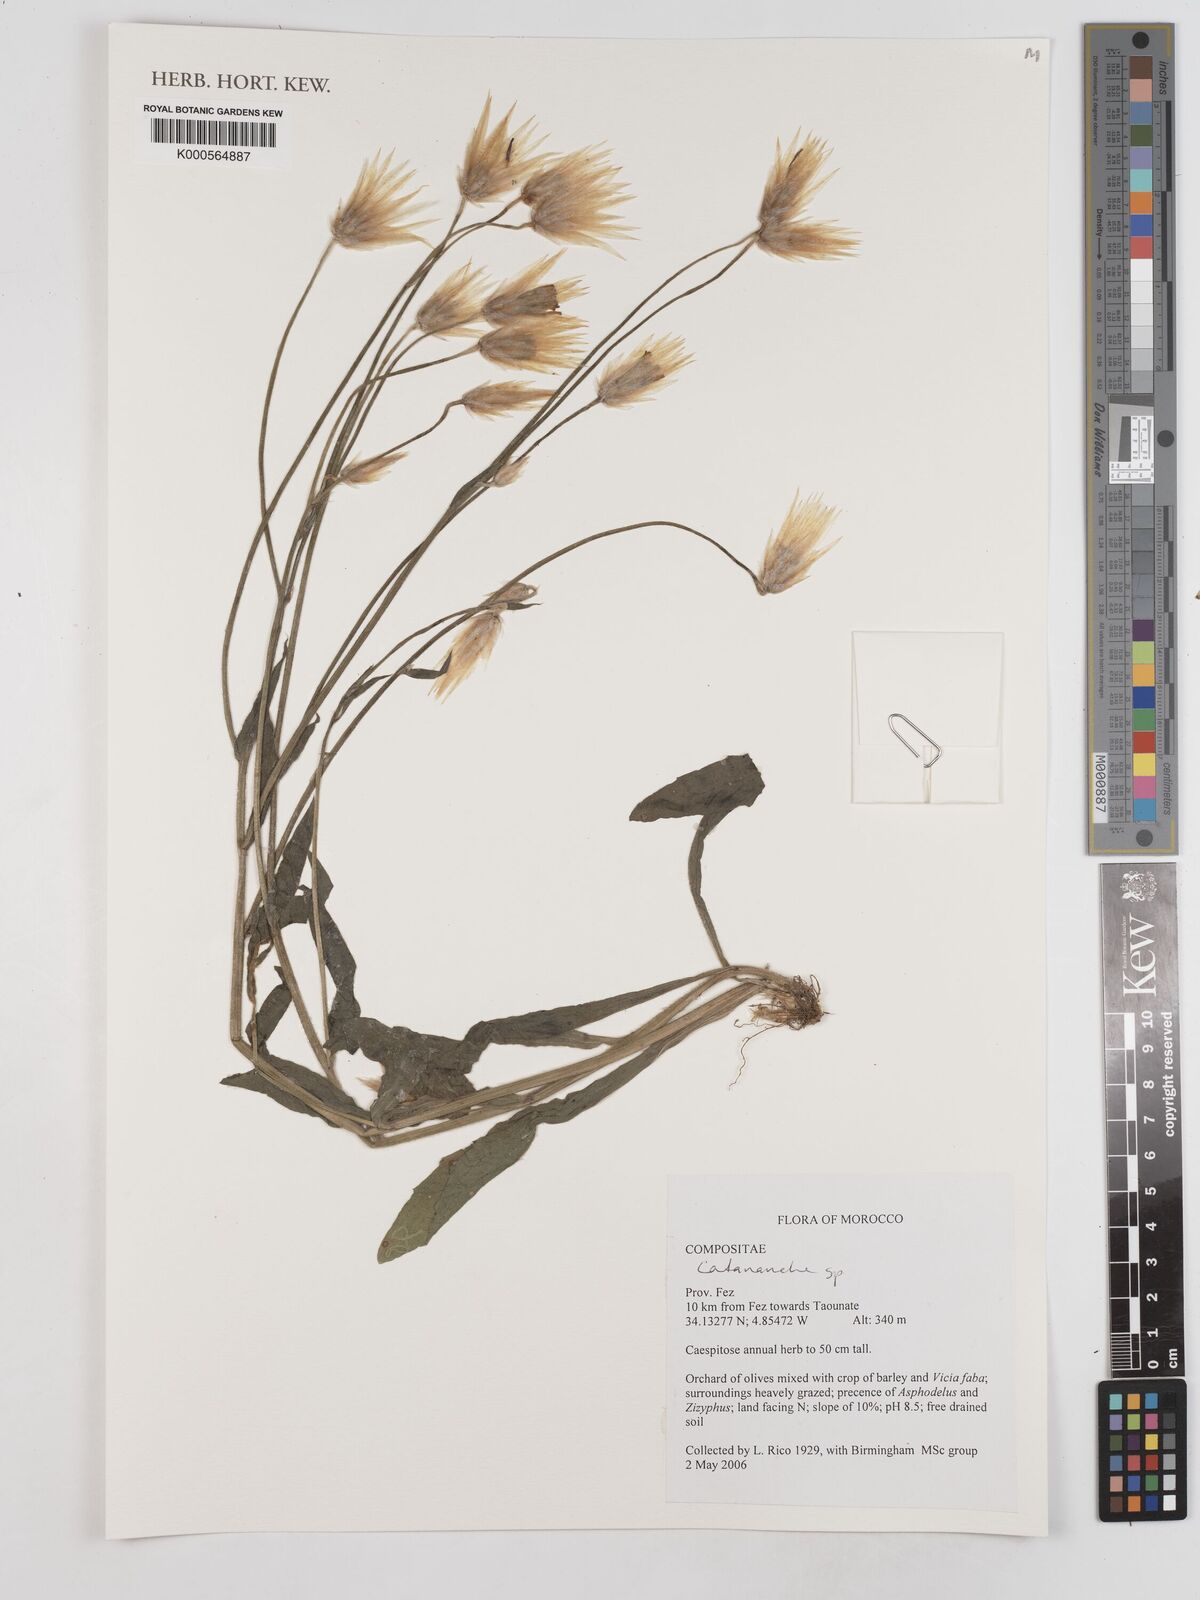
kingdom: Plantae
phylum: Tracheophyta
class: Magnoliopsida
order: Asterales
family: Asteraceae
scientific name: Asteraceae
